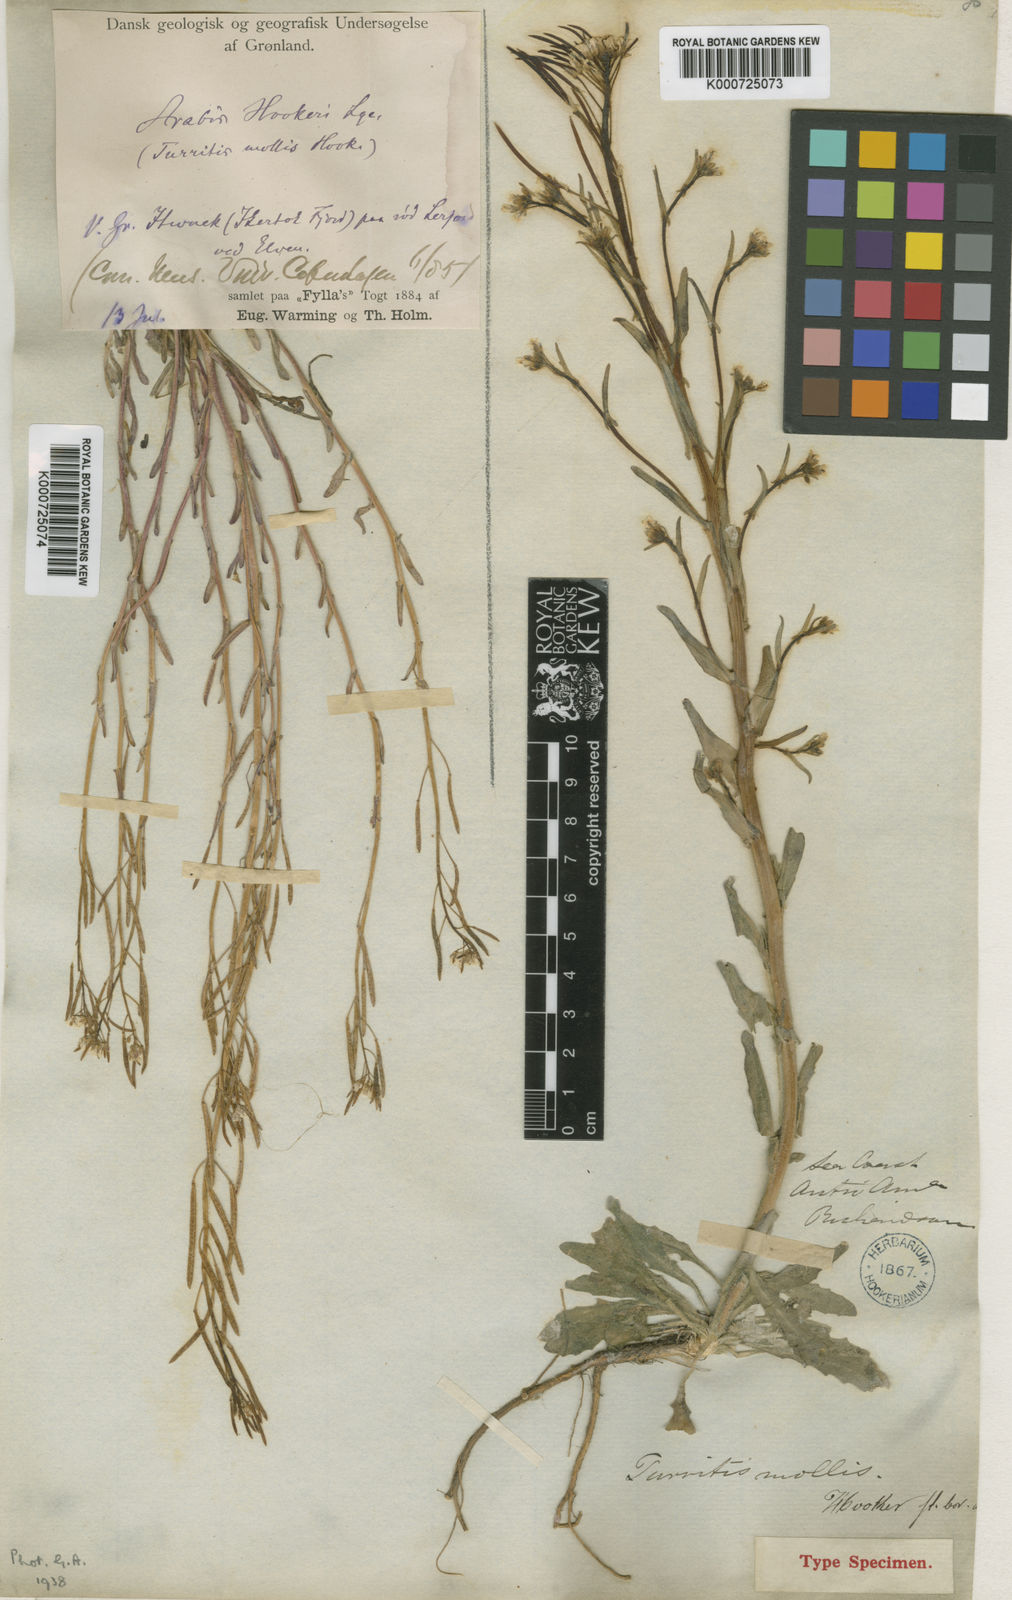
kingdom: Plantae
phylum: Tracheophyta
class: Magnoliopsida
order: Brassicales
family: Brassicaceae
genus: Crucihimalaya
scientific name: Crucihimalaya bursifolia
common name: Soft fissurewort
